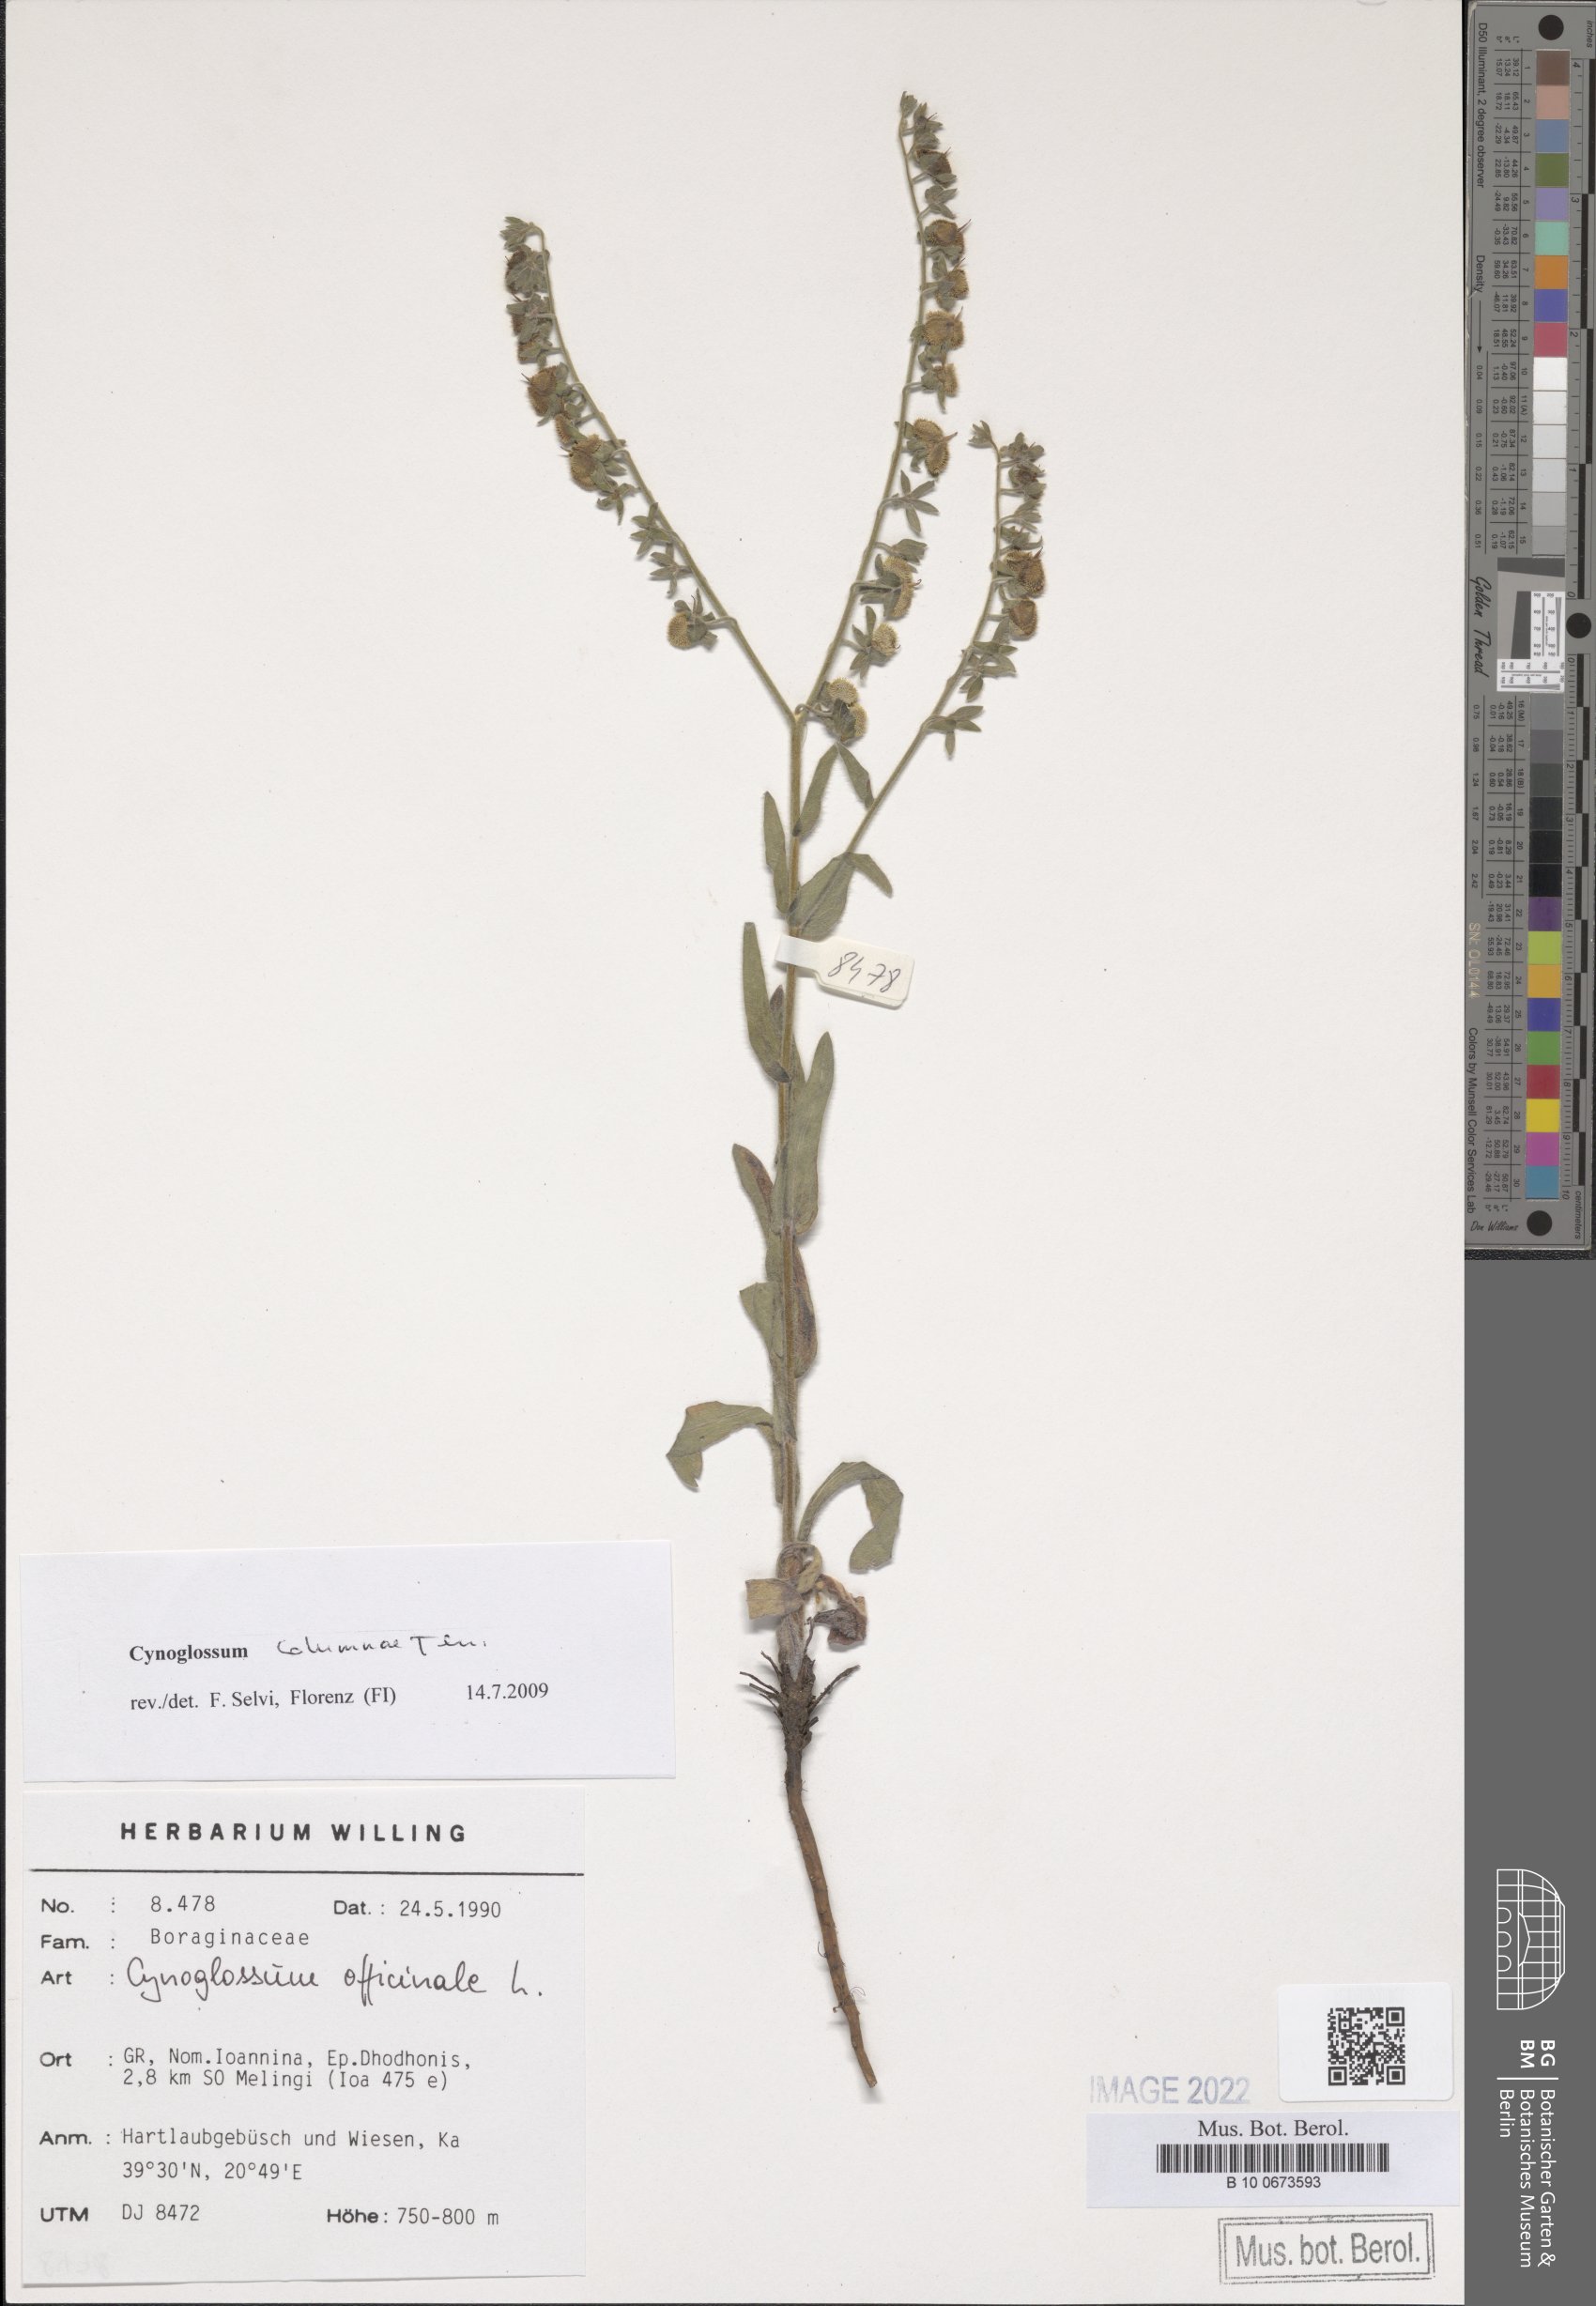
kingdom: Plantae
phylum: Tracheophyta
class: Magnoliopsida
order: Boraginales
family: Boraginaceae
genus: Rindera
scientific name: Rindera columnae
